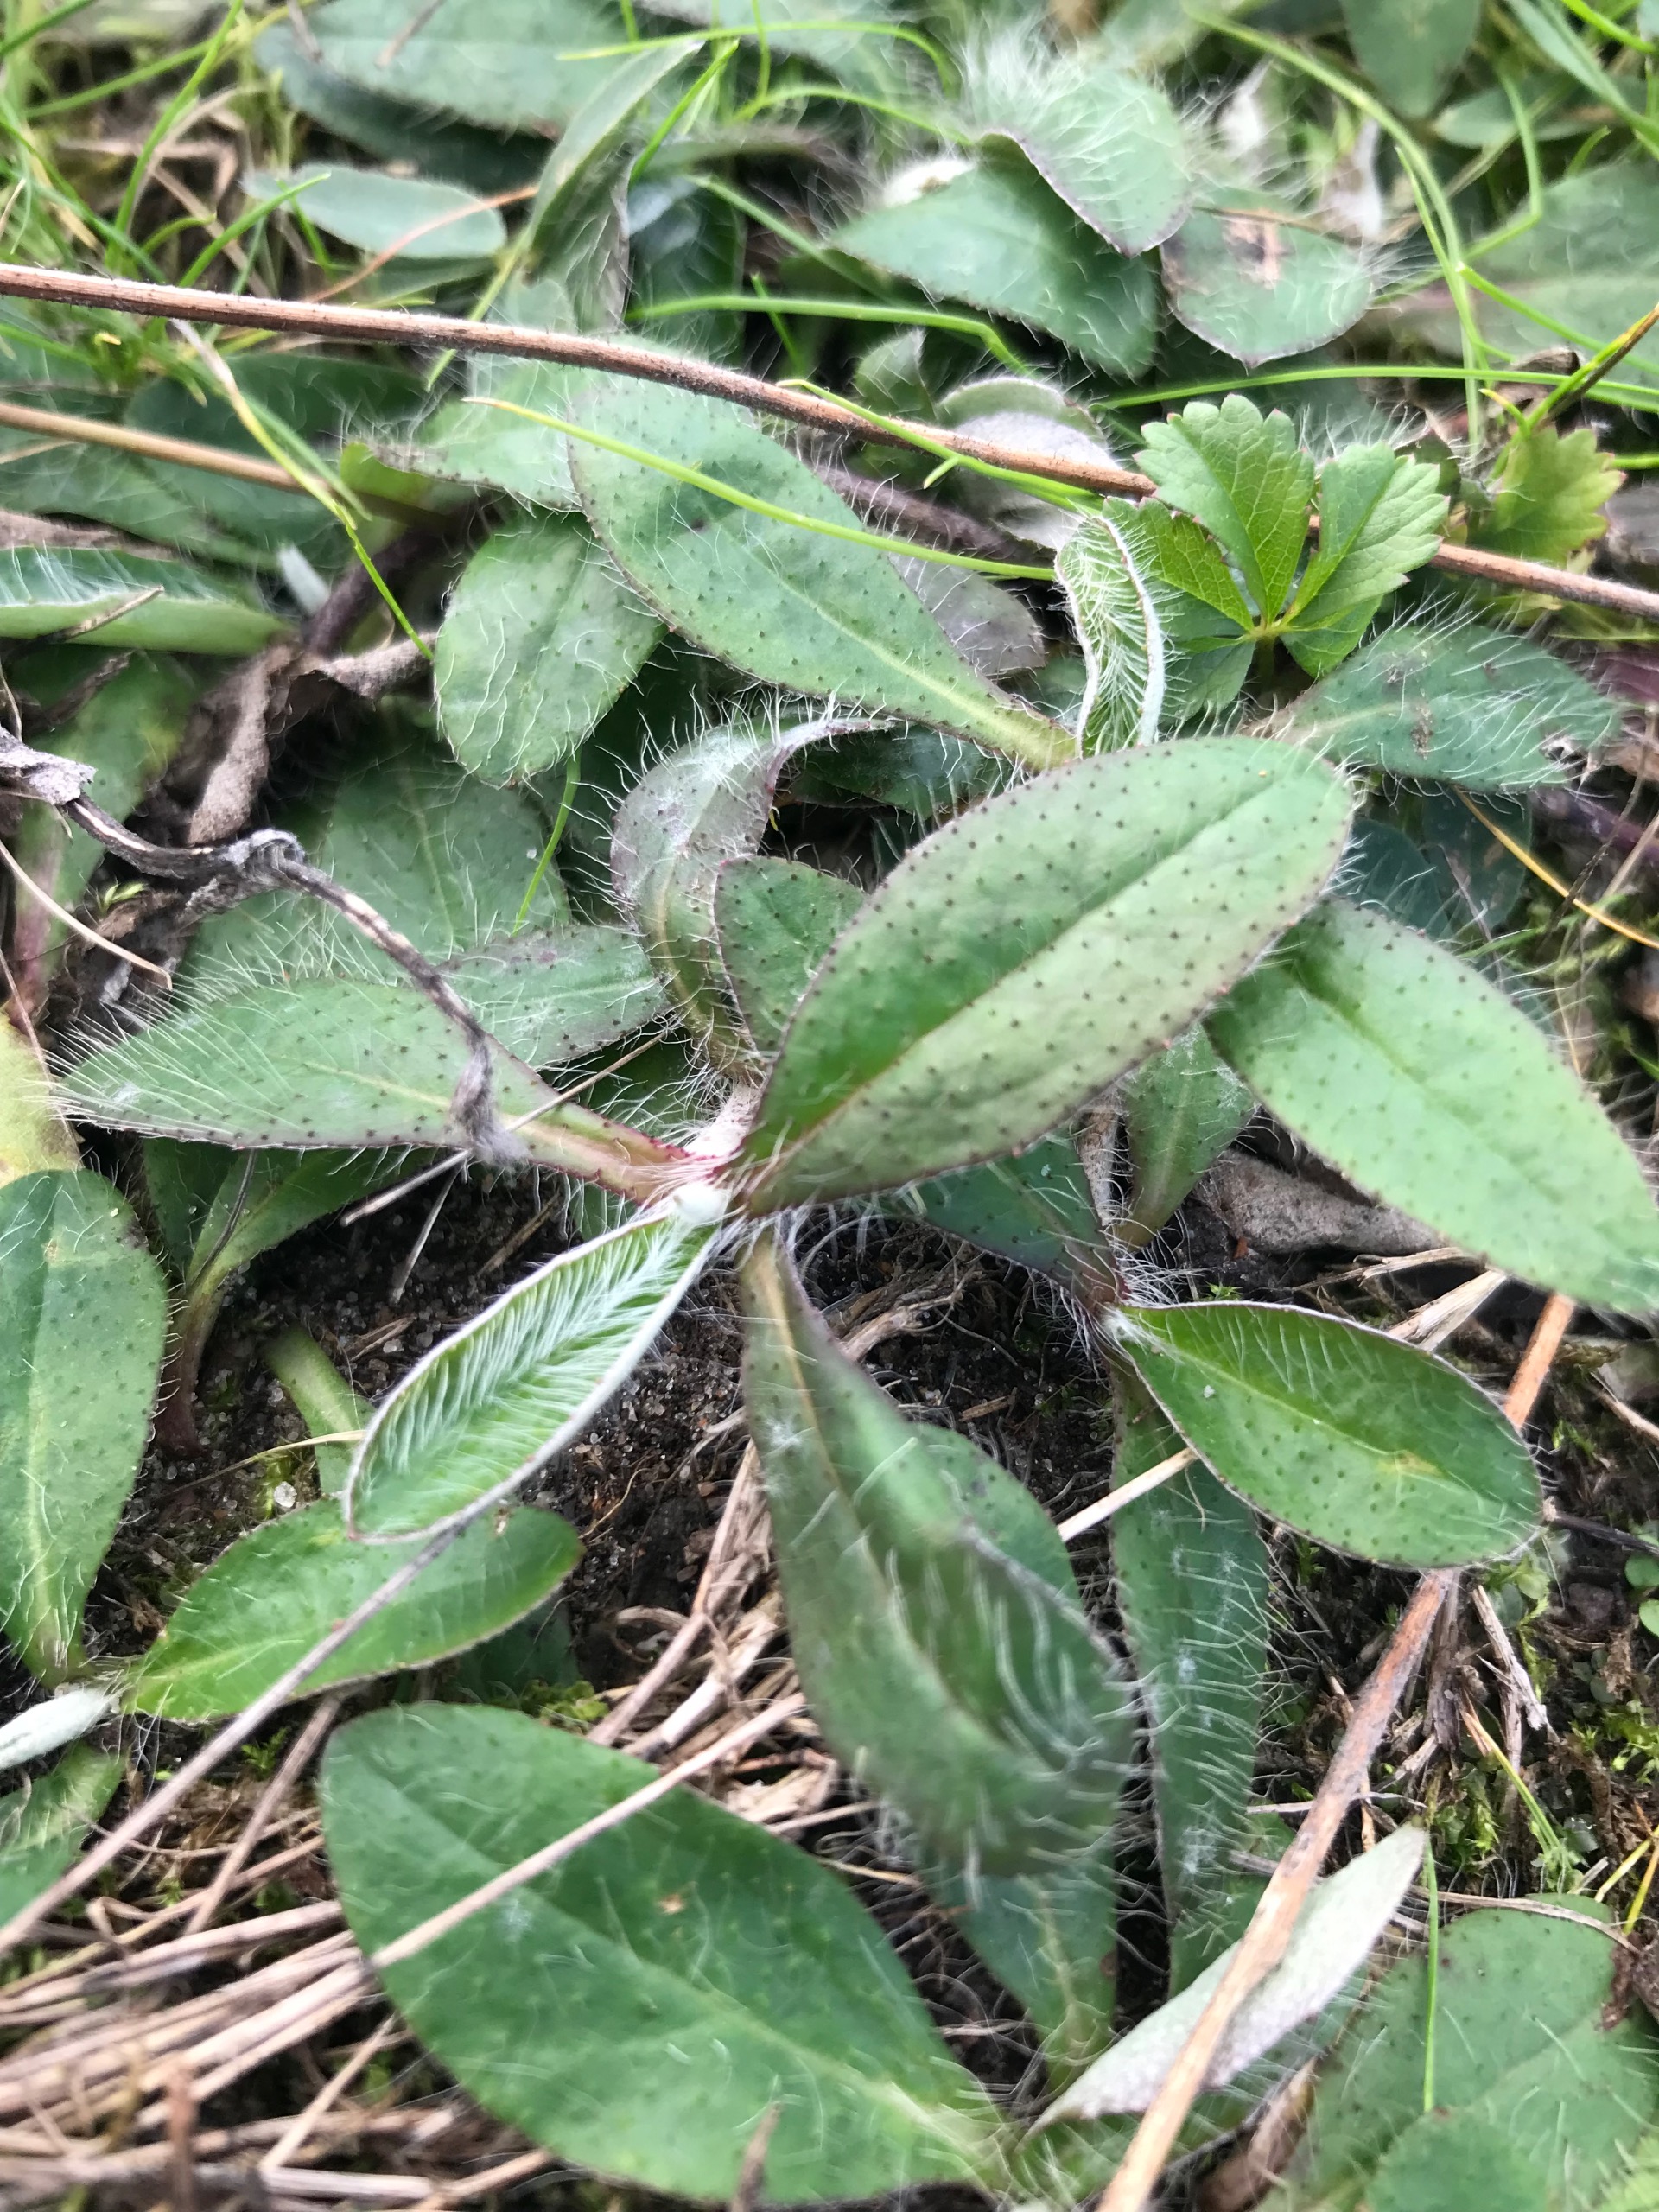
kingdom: Plantae
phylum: Tracheophyta
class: Magnoliopsida
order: Asterales
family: Asteraceae
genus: Pilosella
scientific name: Pilosella officinarum
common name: Håret høgeurt
